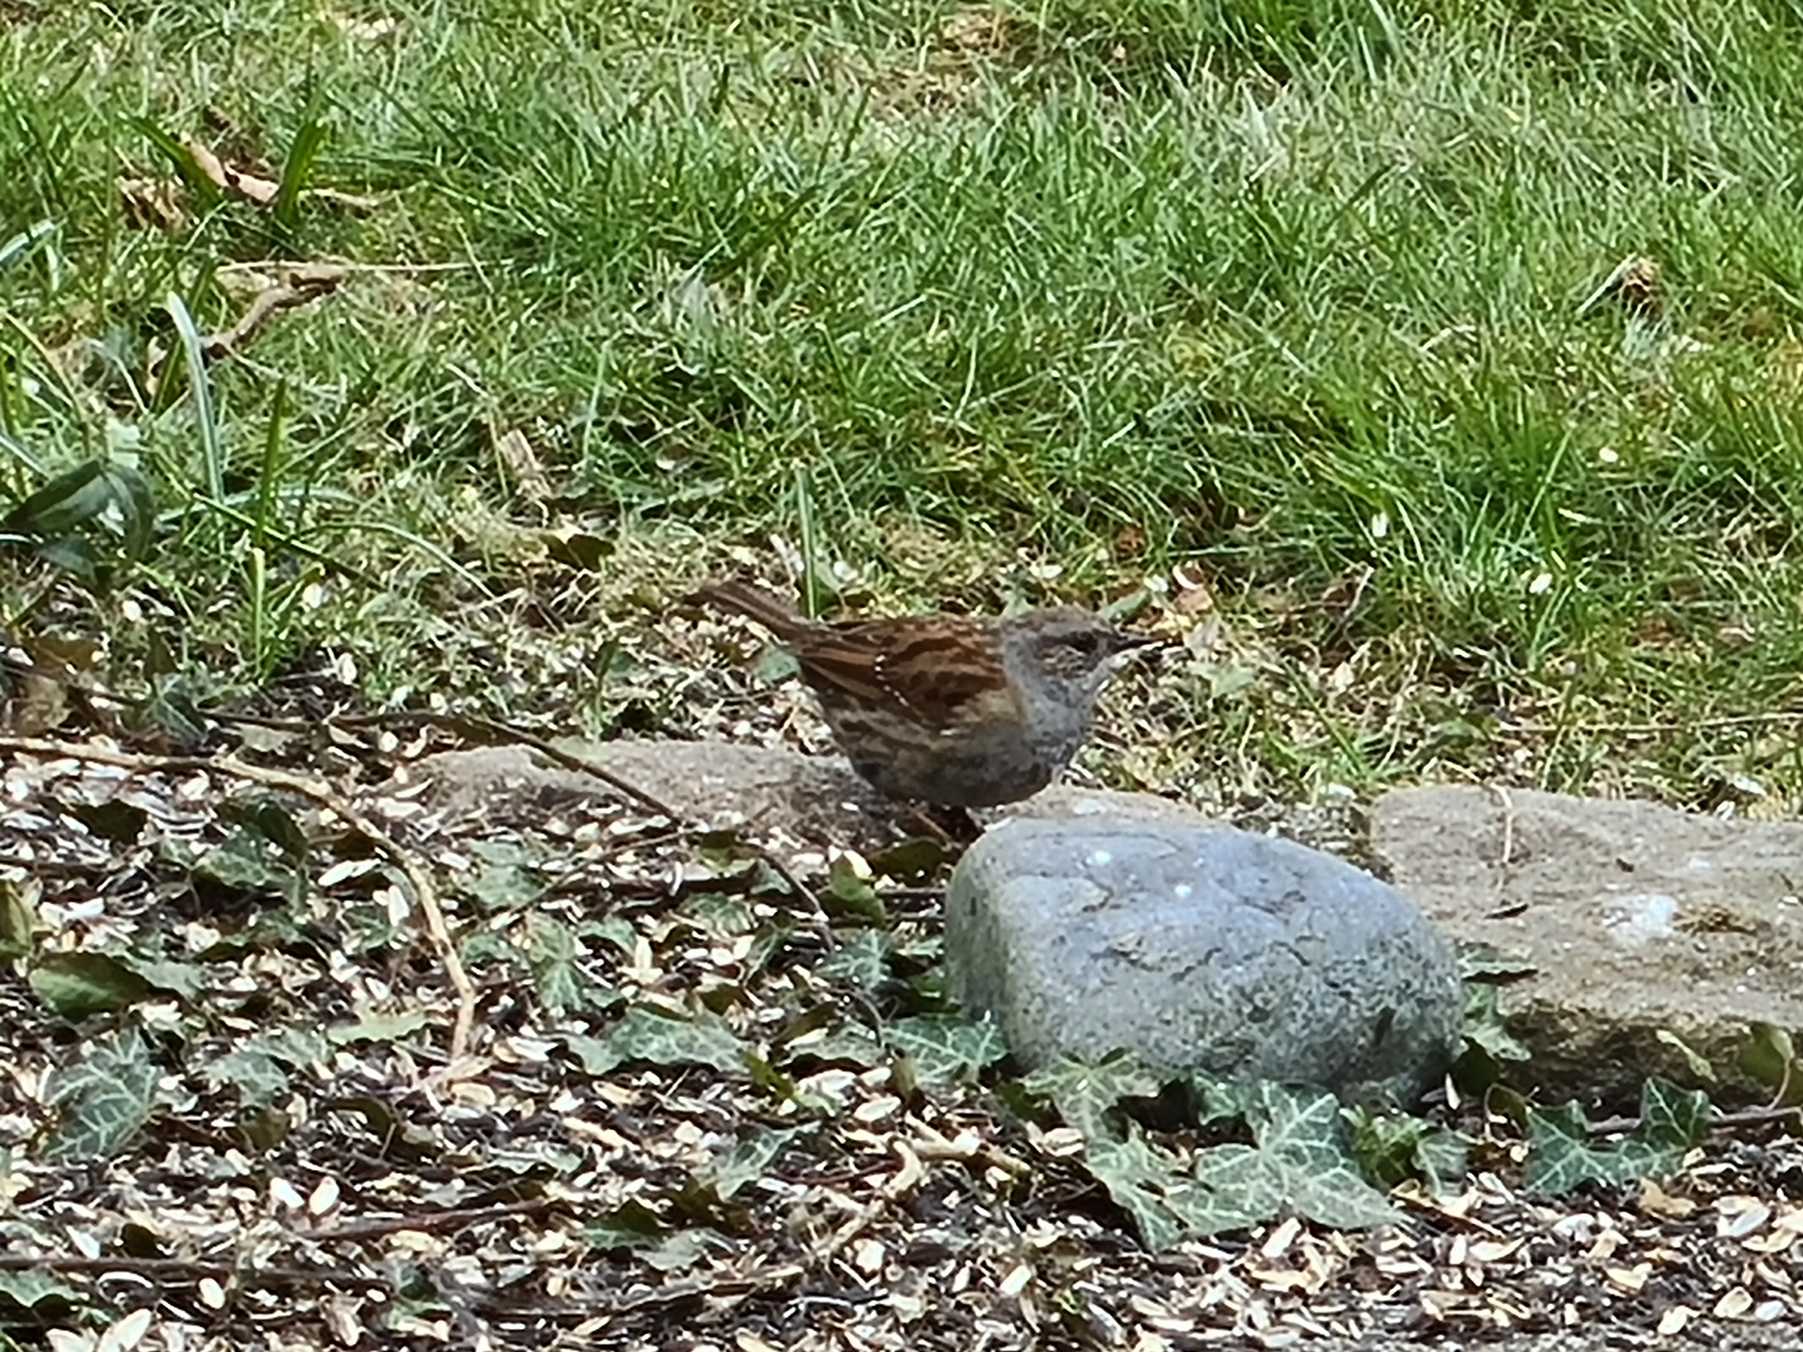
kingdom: Animalia
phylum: Chordata
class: Aves
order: Passeriformes
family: Prunellidae
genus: Prunella
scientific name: Prunella modularis
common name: Jernspurv
